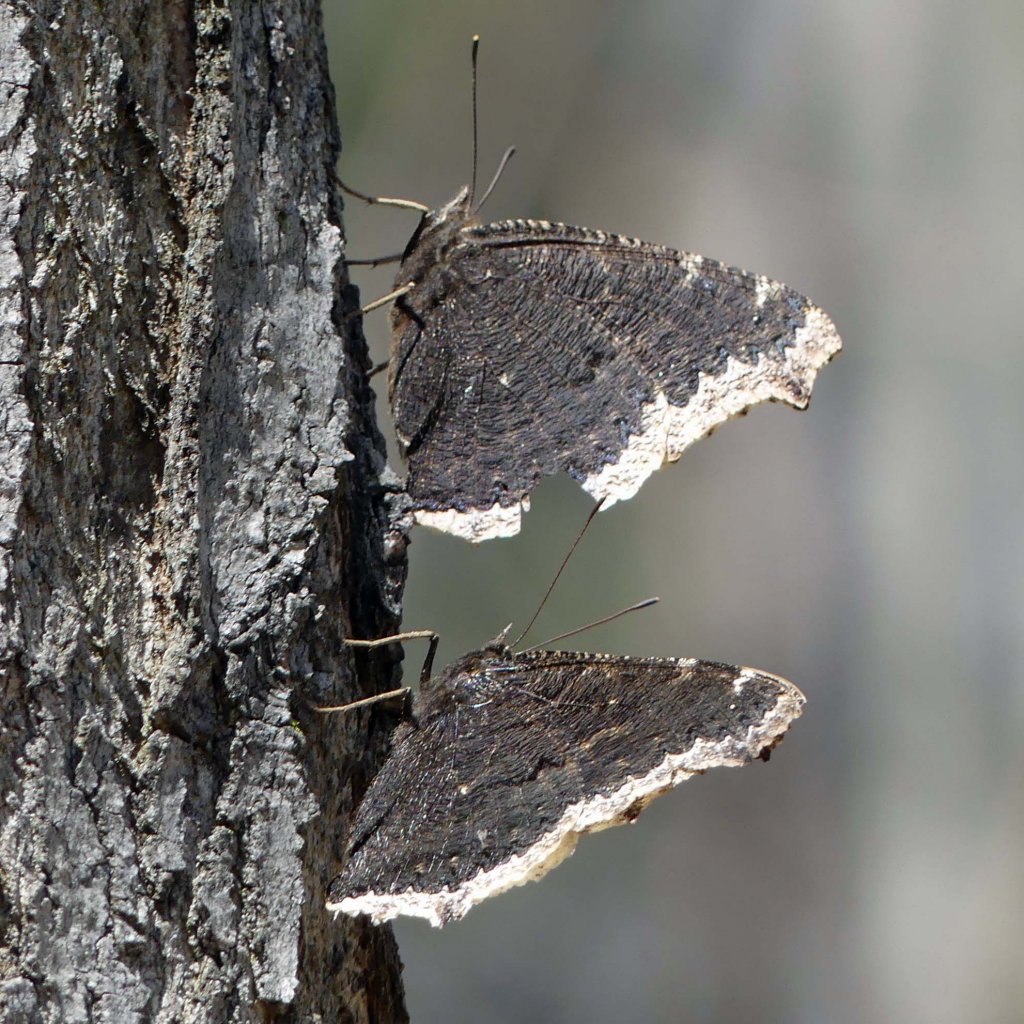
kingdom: Animalia
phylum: Arthropoda
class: Insecta
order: Lepidoptera
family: Nymphalidae
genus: Nymphalis
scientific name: Nymphalis antiopa
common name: Mourning Cloak
